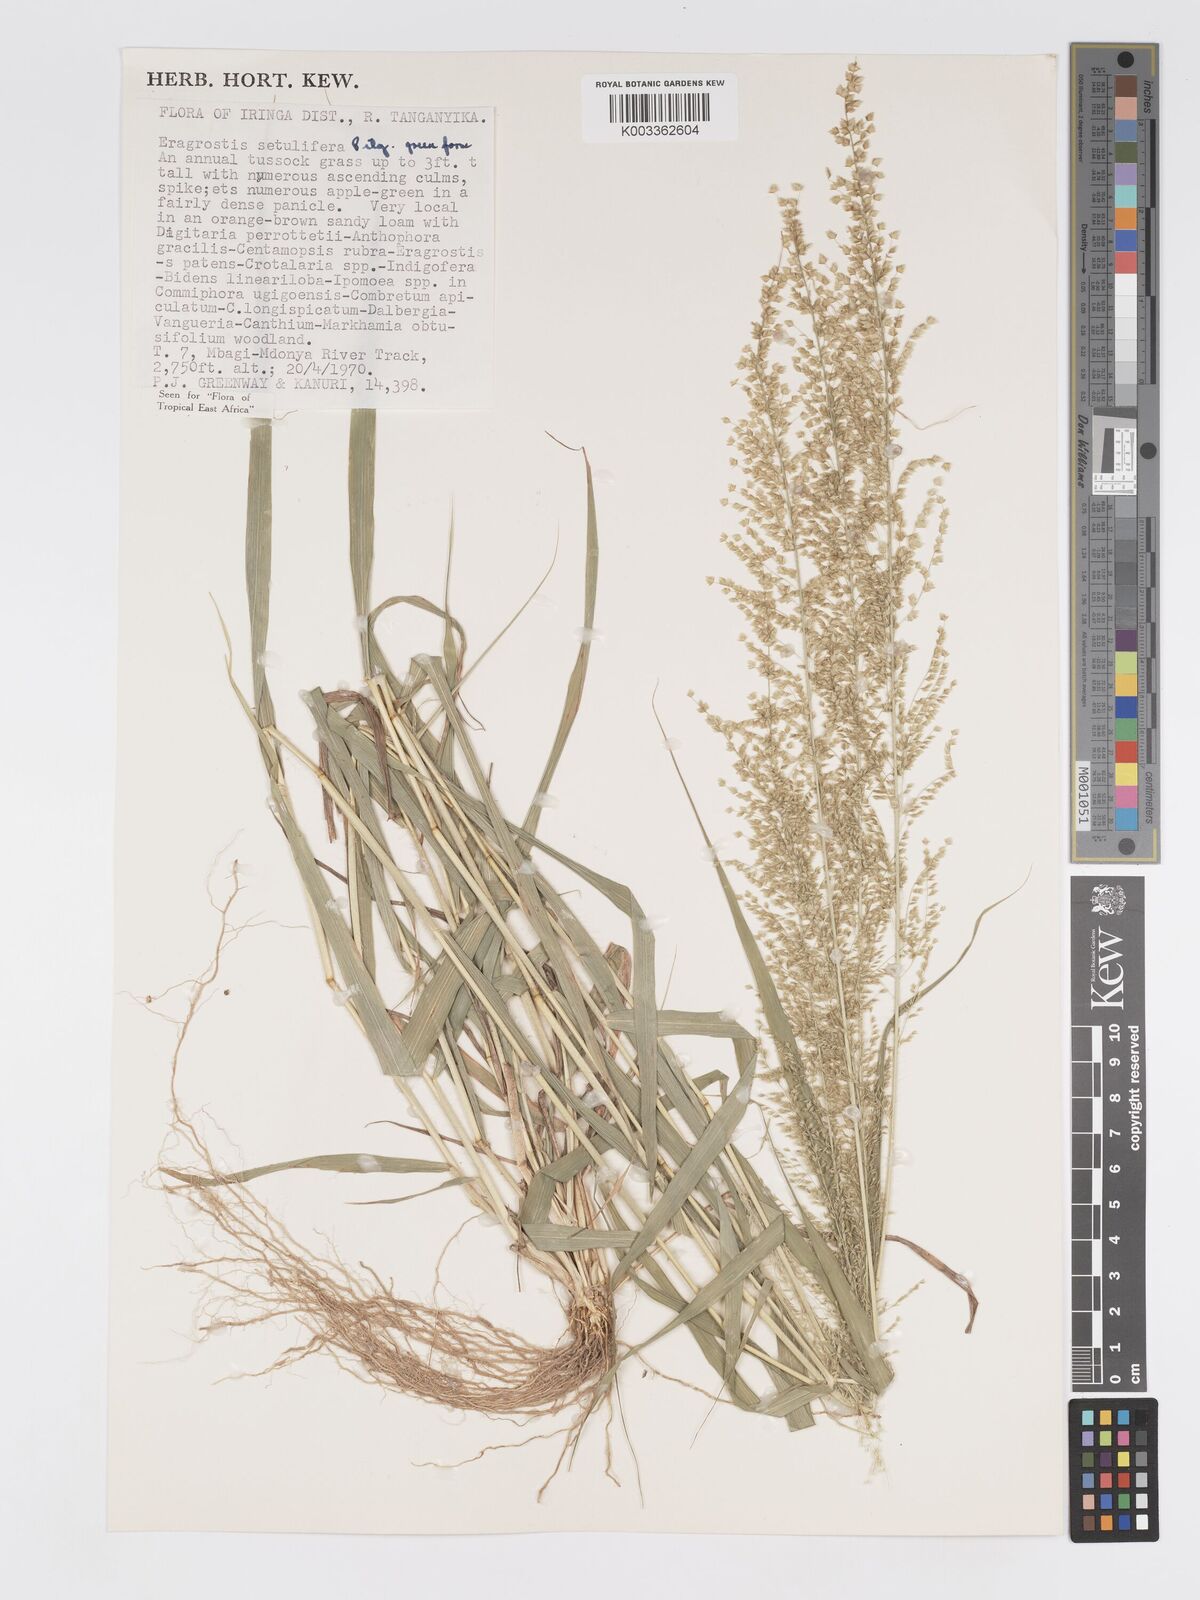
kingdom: Plantae
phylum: Tracheophyta
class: Liliopsida
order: Poales
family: Poaceae
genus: Eragrostis
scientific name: Eragrostis setulifera
